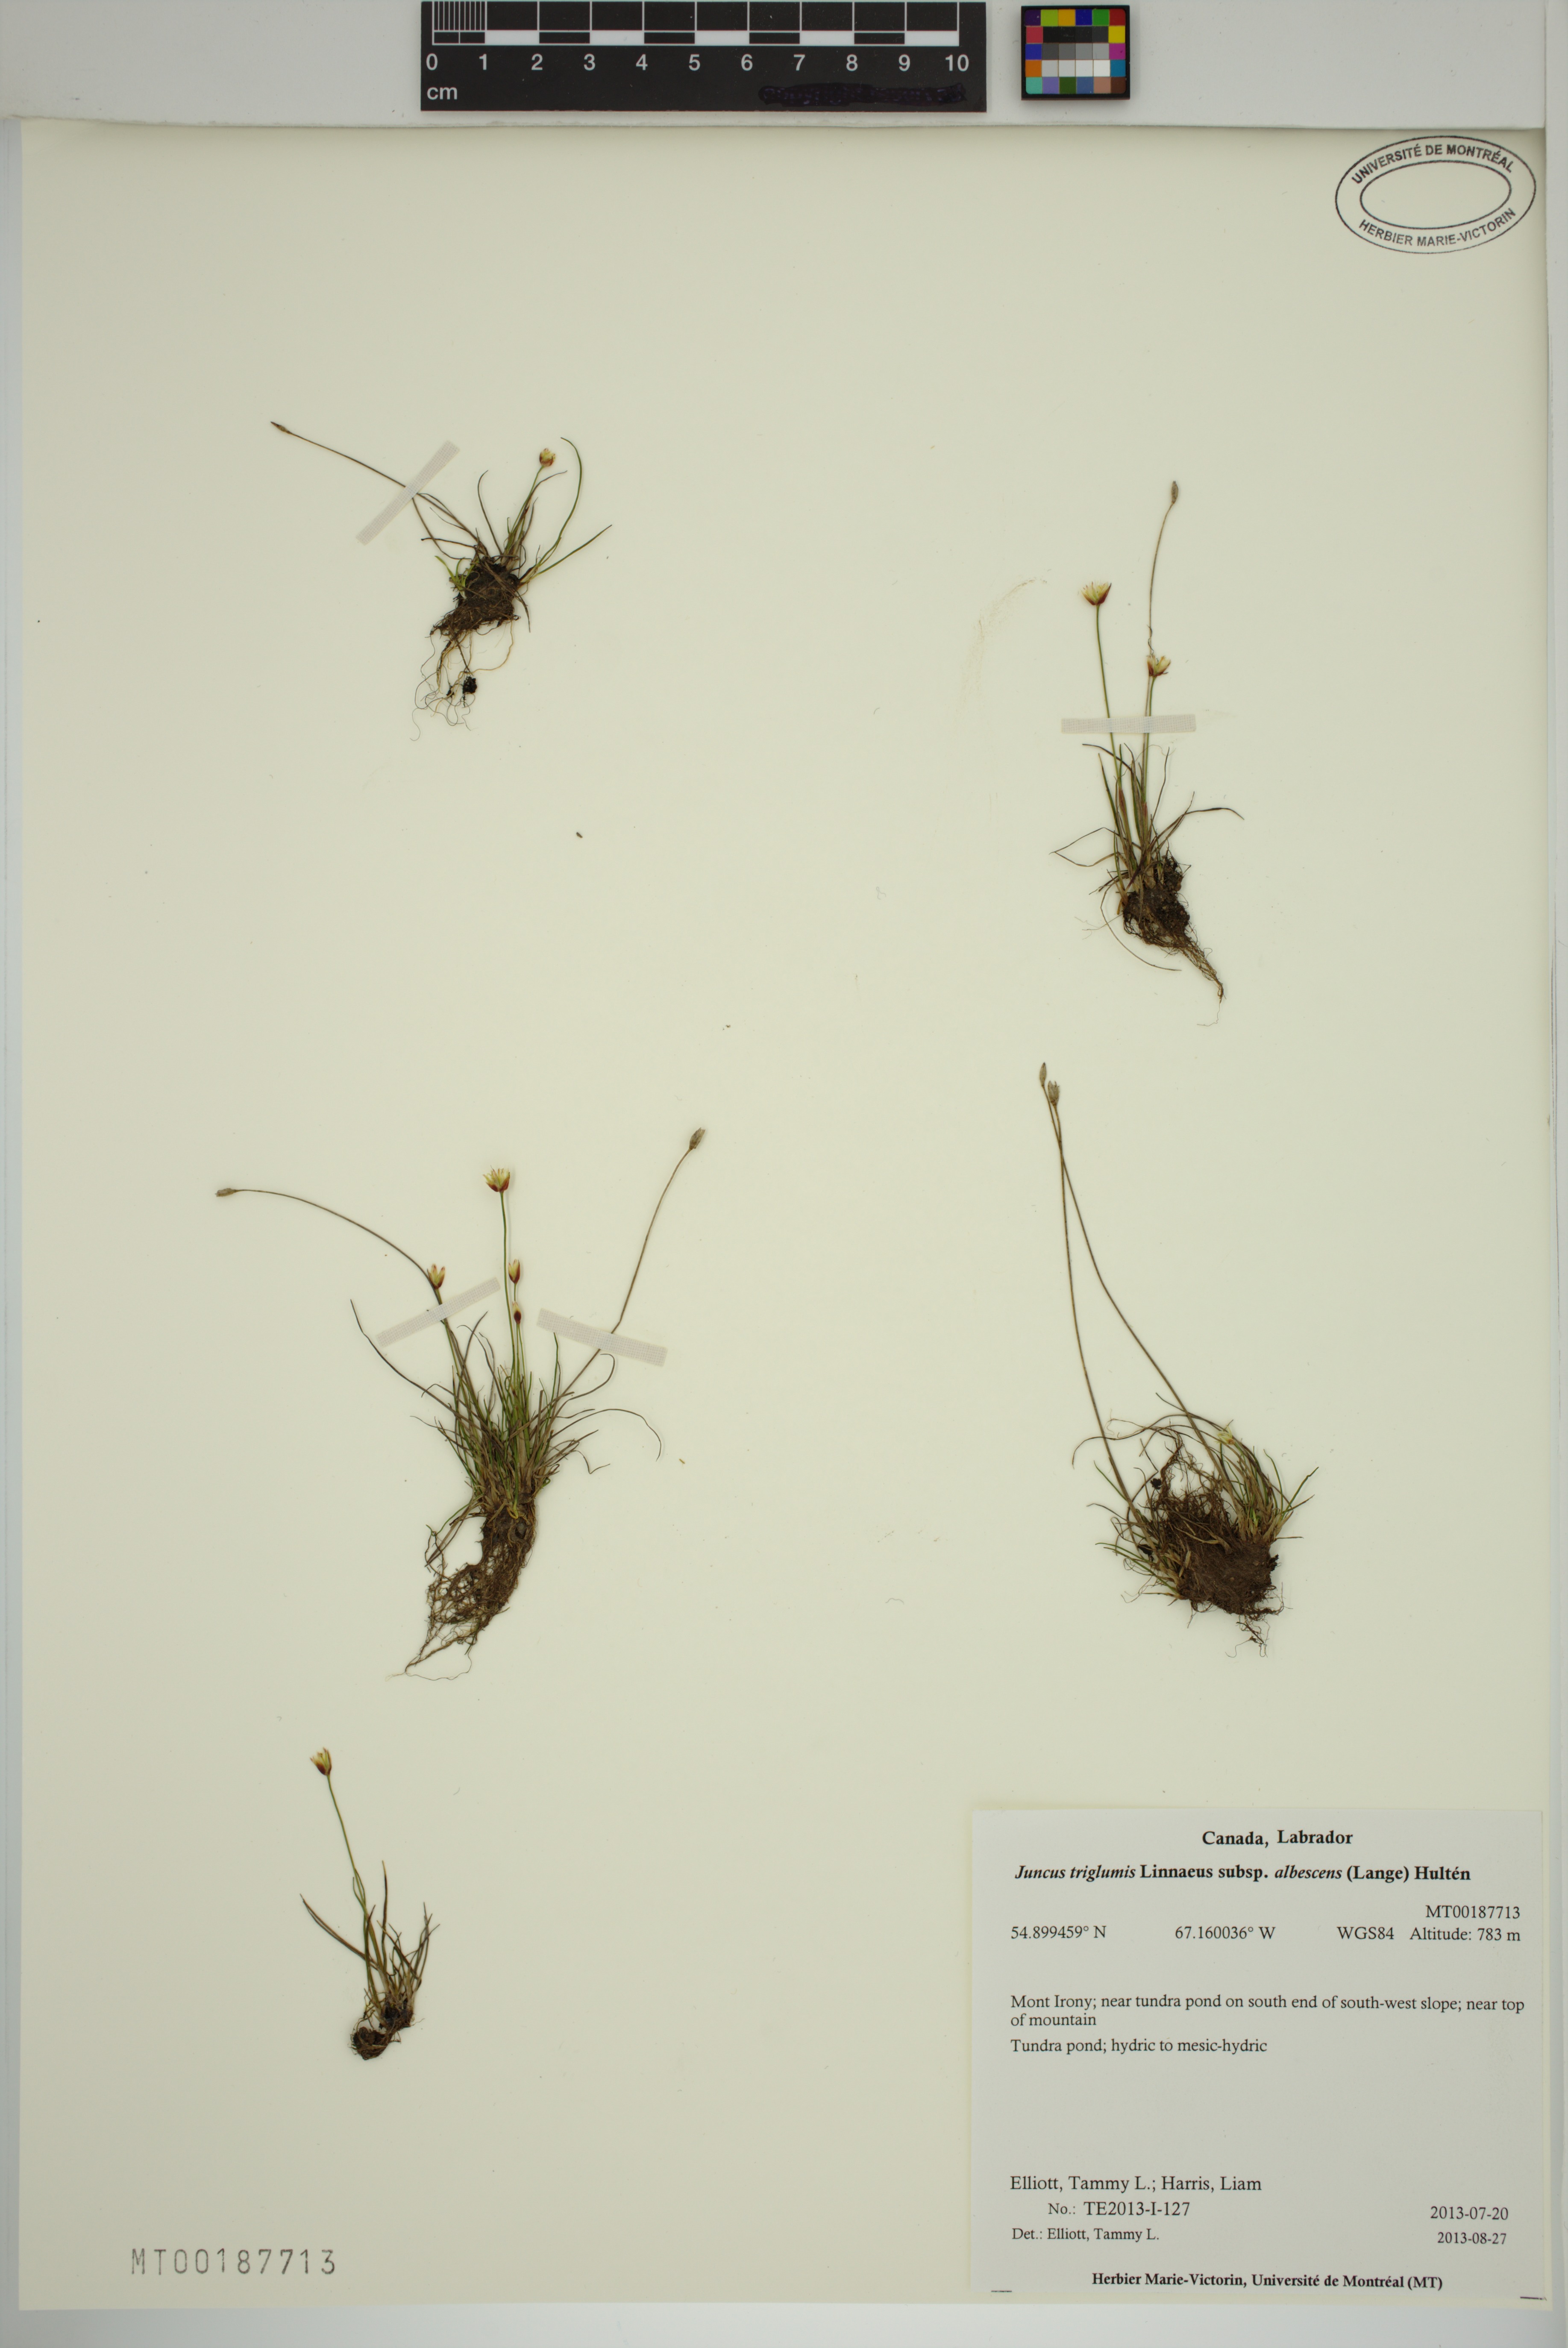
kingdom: Plantae
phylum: Tracheophyta
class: Liliopsida
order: Poales
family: Juncaceae
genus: Juncus
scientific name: Juncus albescens
